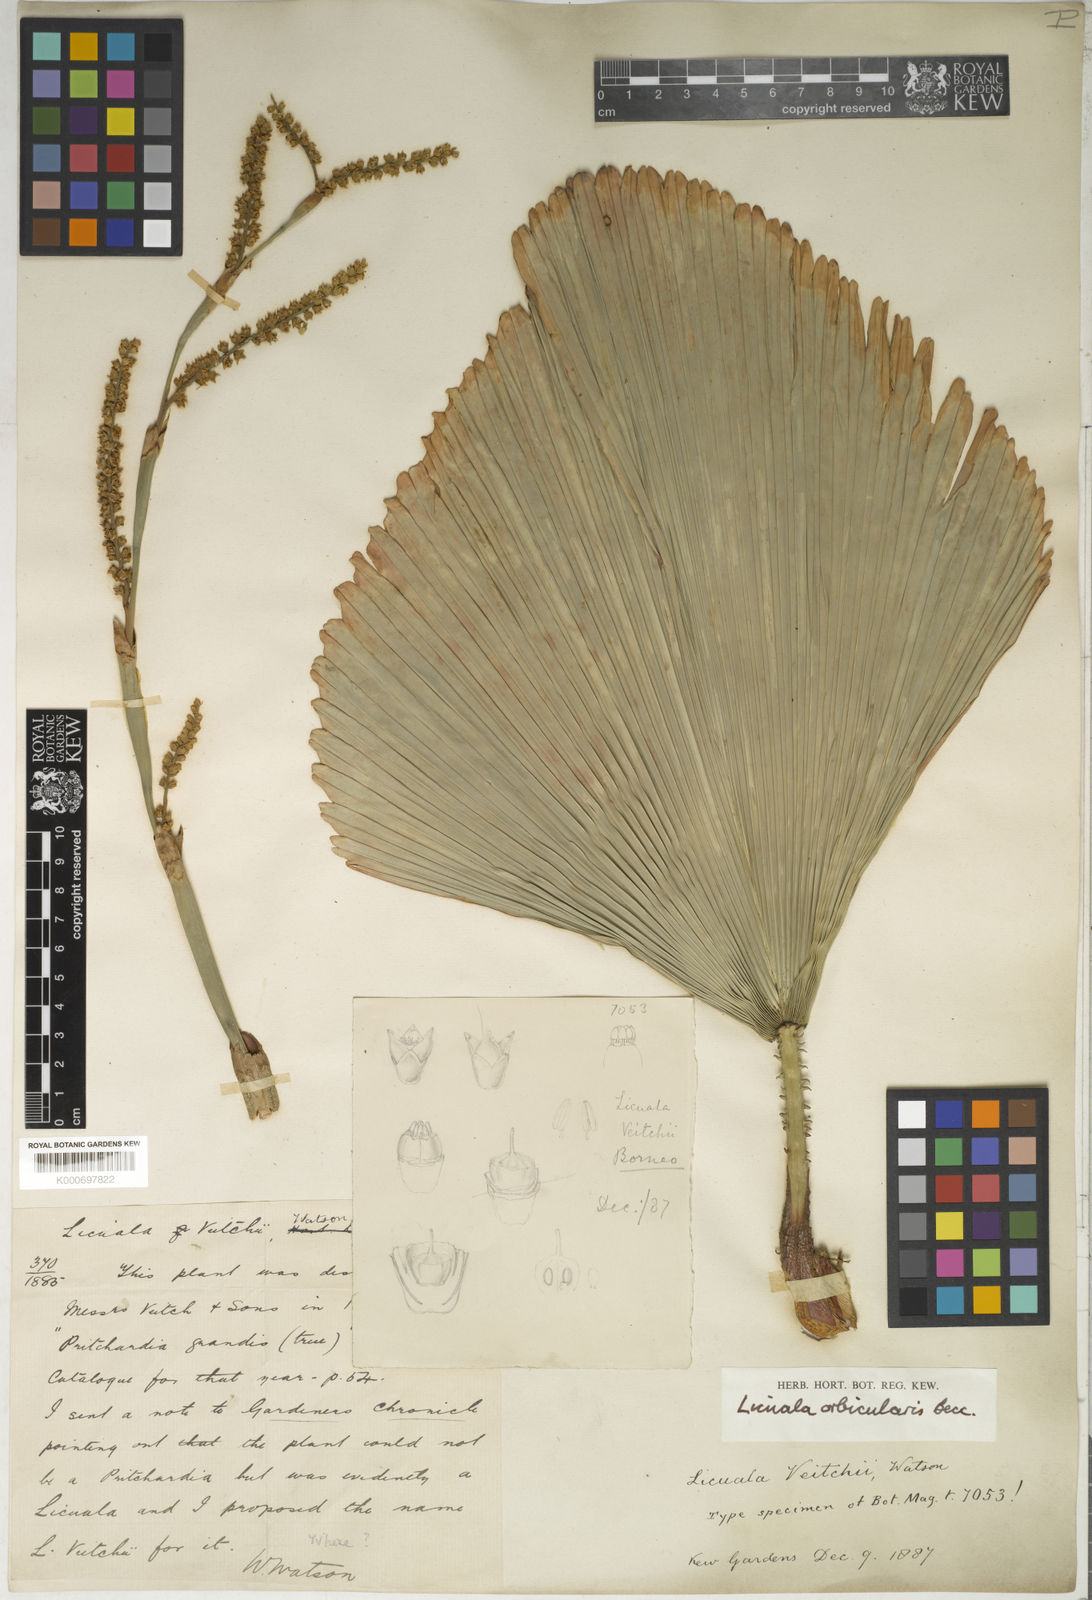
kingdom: Plantae
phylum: Tracheophyta
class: Liliopsida
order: Arecales
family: Arecaceae
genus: Licuala
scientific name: Licuala orbicularis
